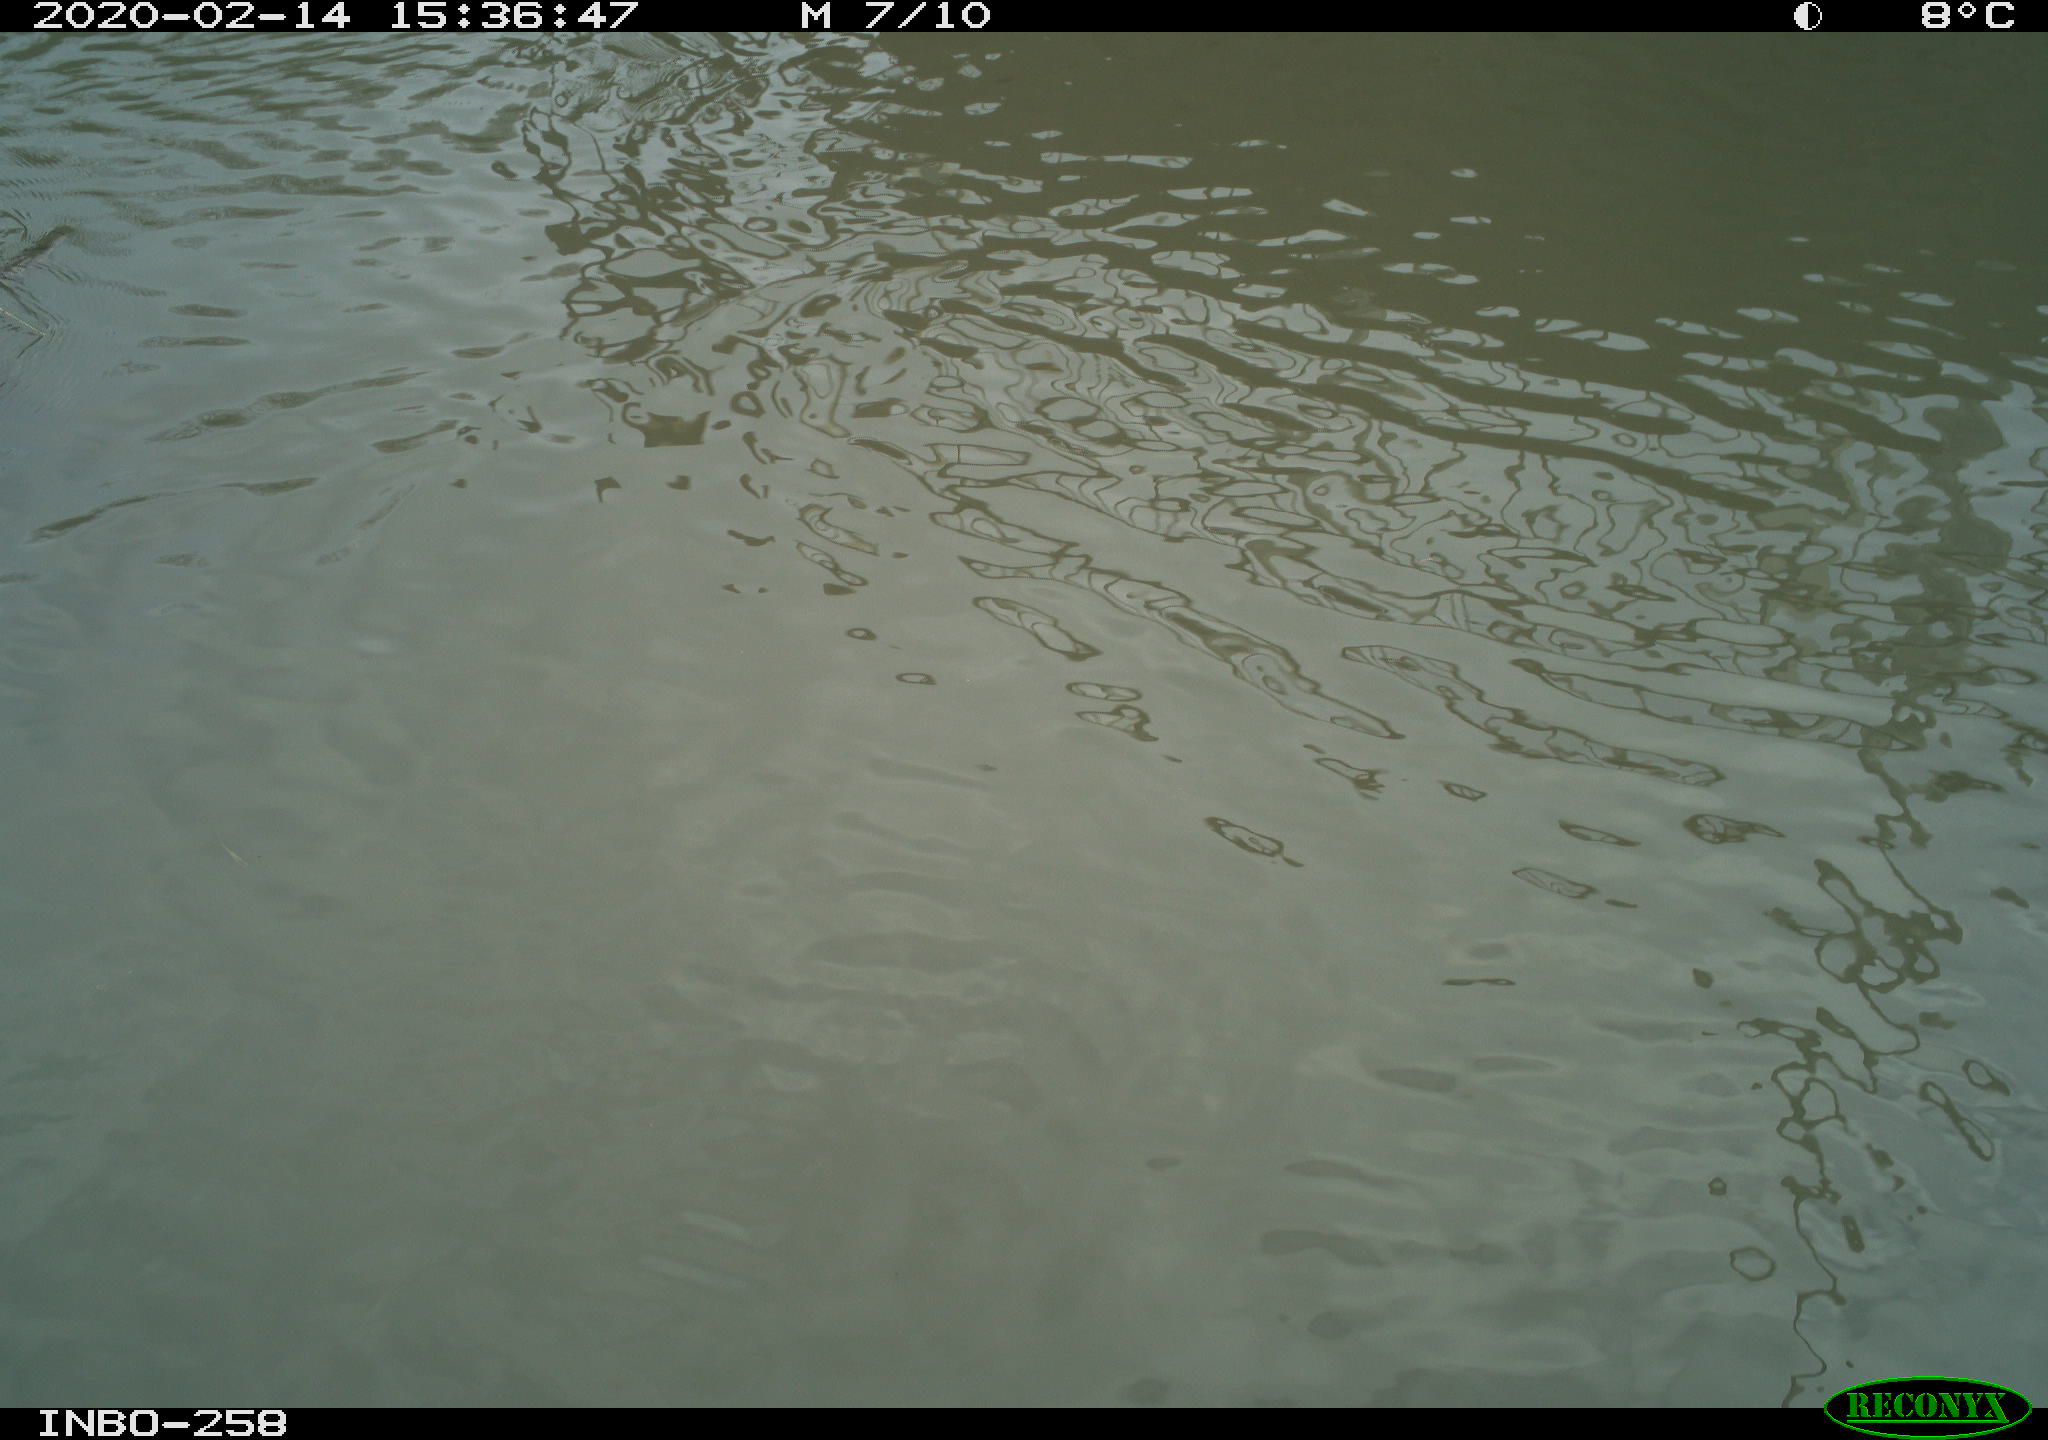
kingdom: Animalia
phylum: Chordata
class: Aves
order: Anseriformes
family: Anatidae
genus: Anas
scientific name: Anas platyrhynchos
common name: Mallard
